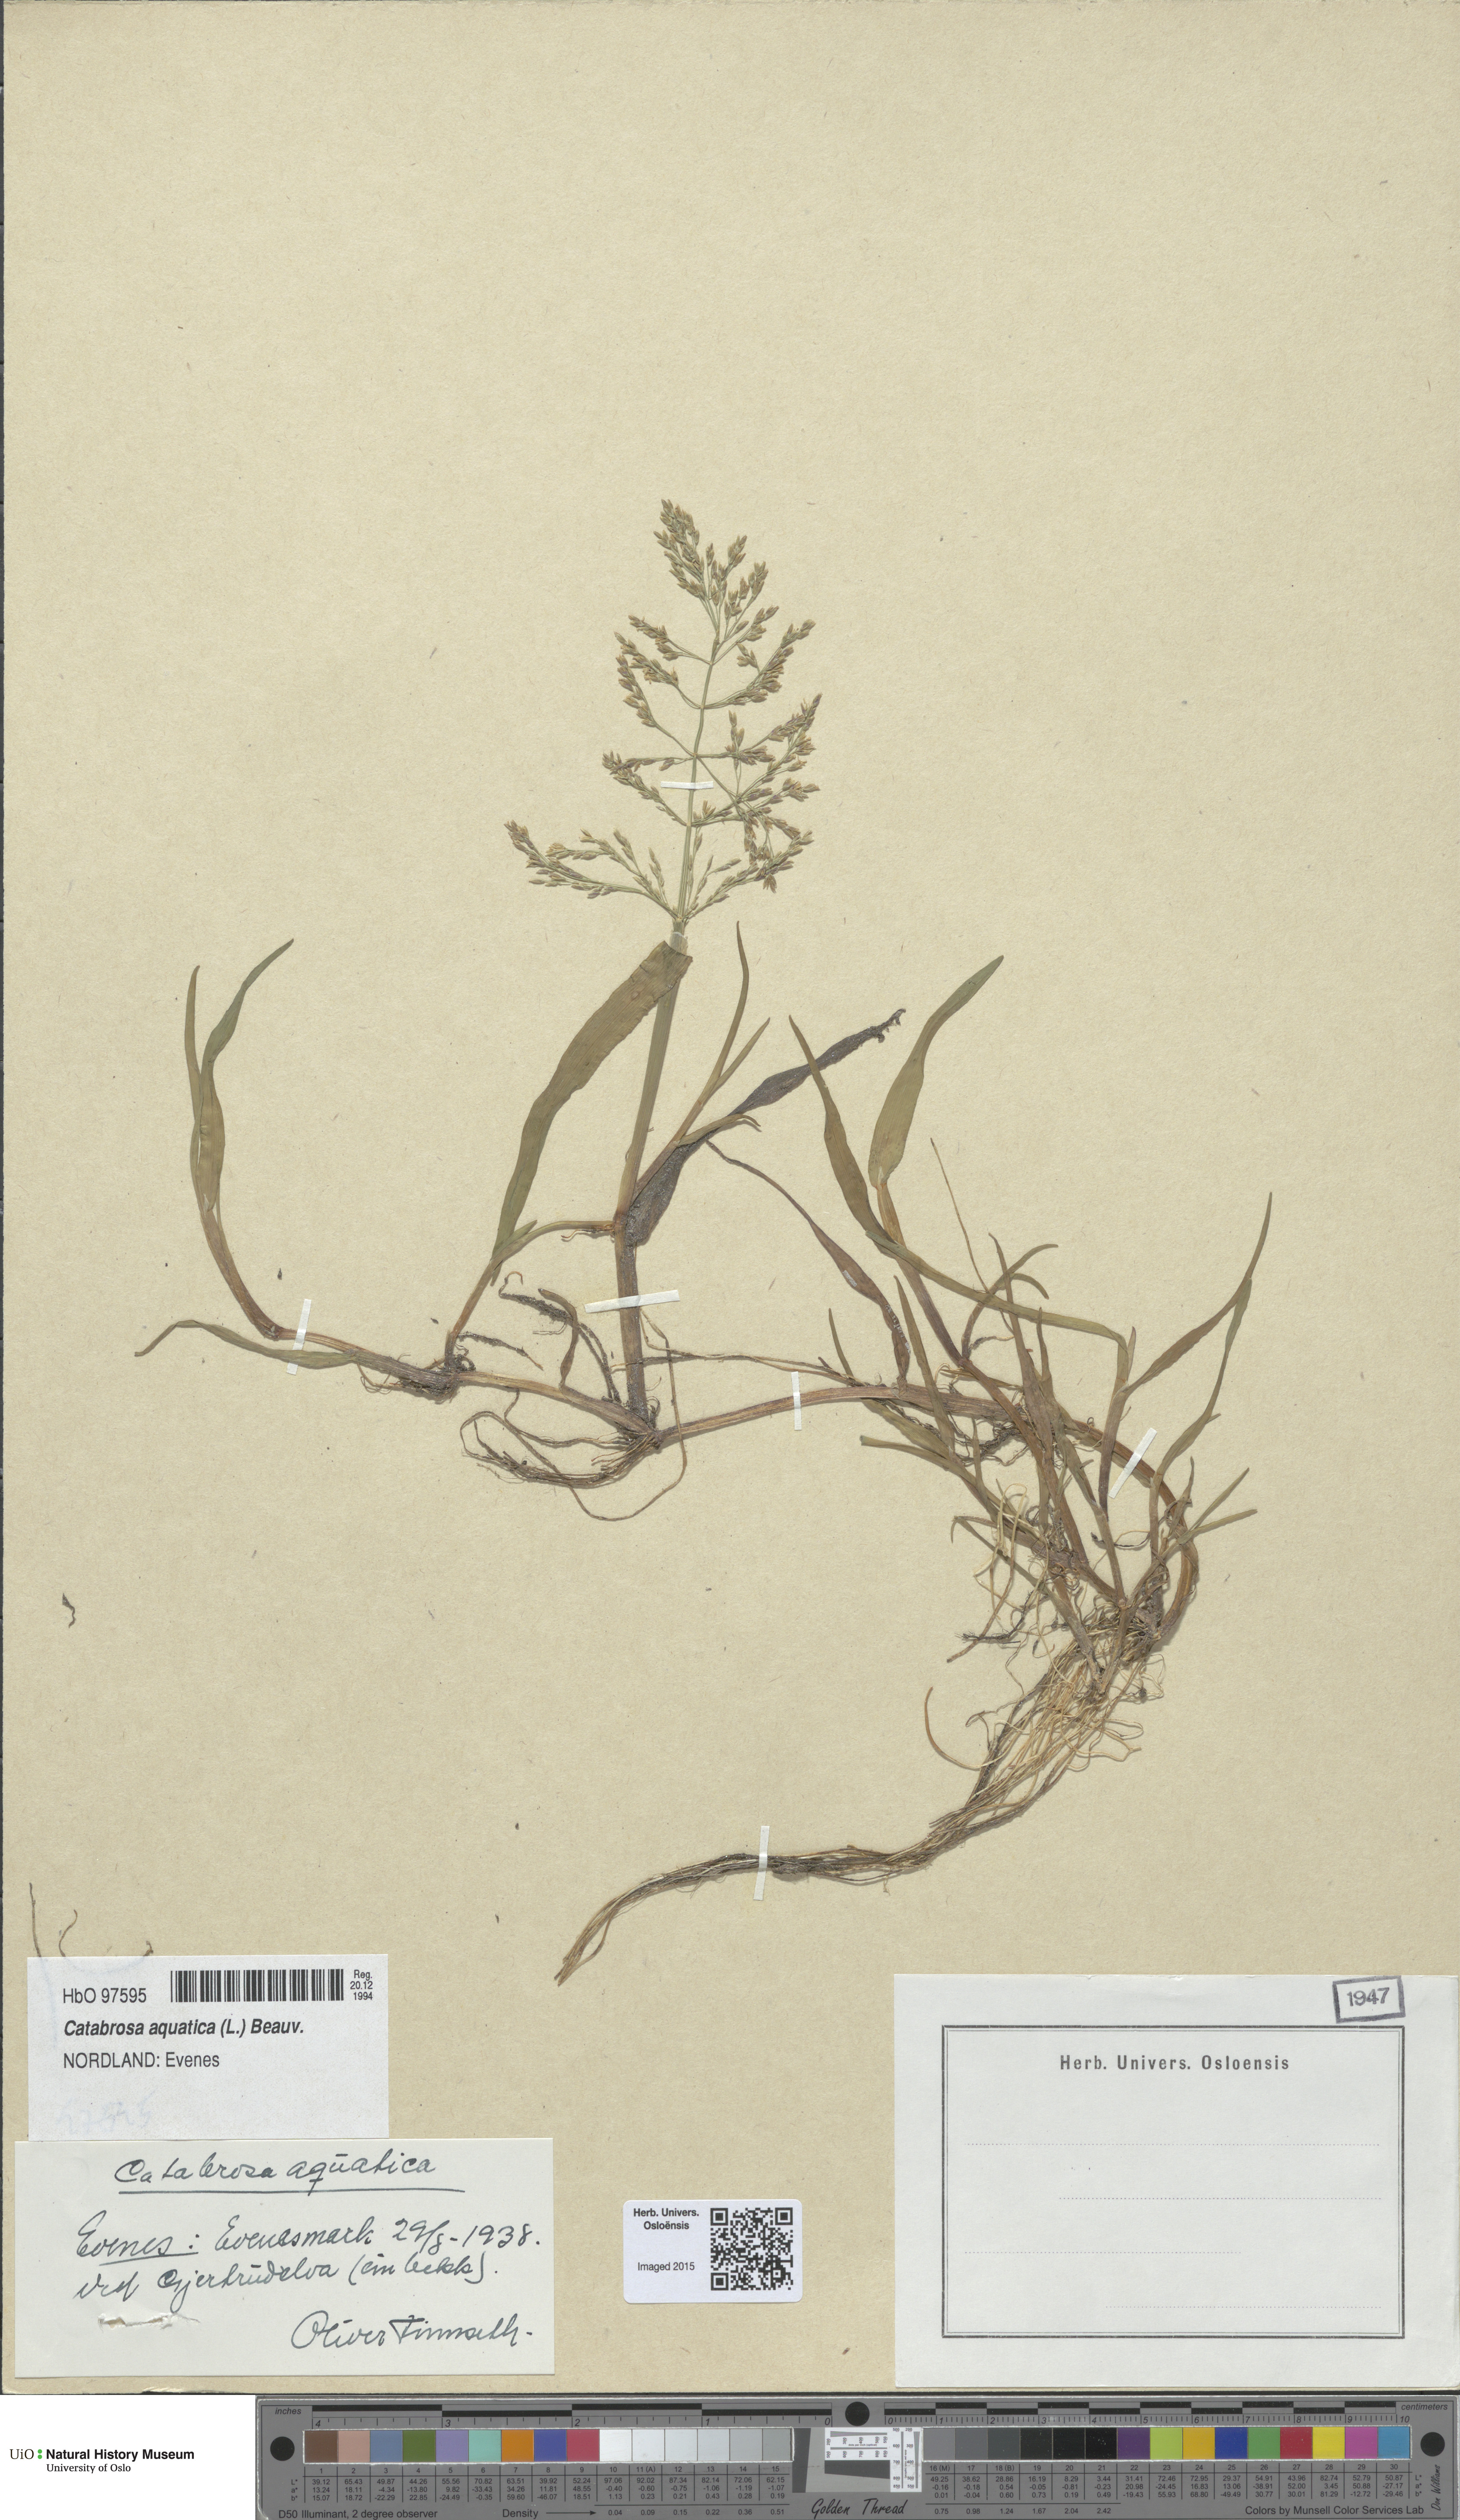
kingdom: Plantae
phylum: Tracheophyta
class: Liliopsida
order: Poales
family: Poaceae
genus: Catabrosa
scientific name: Catabrosa aquatica
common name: Whorl-grass
